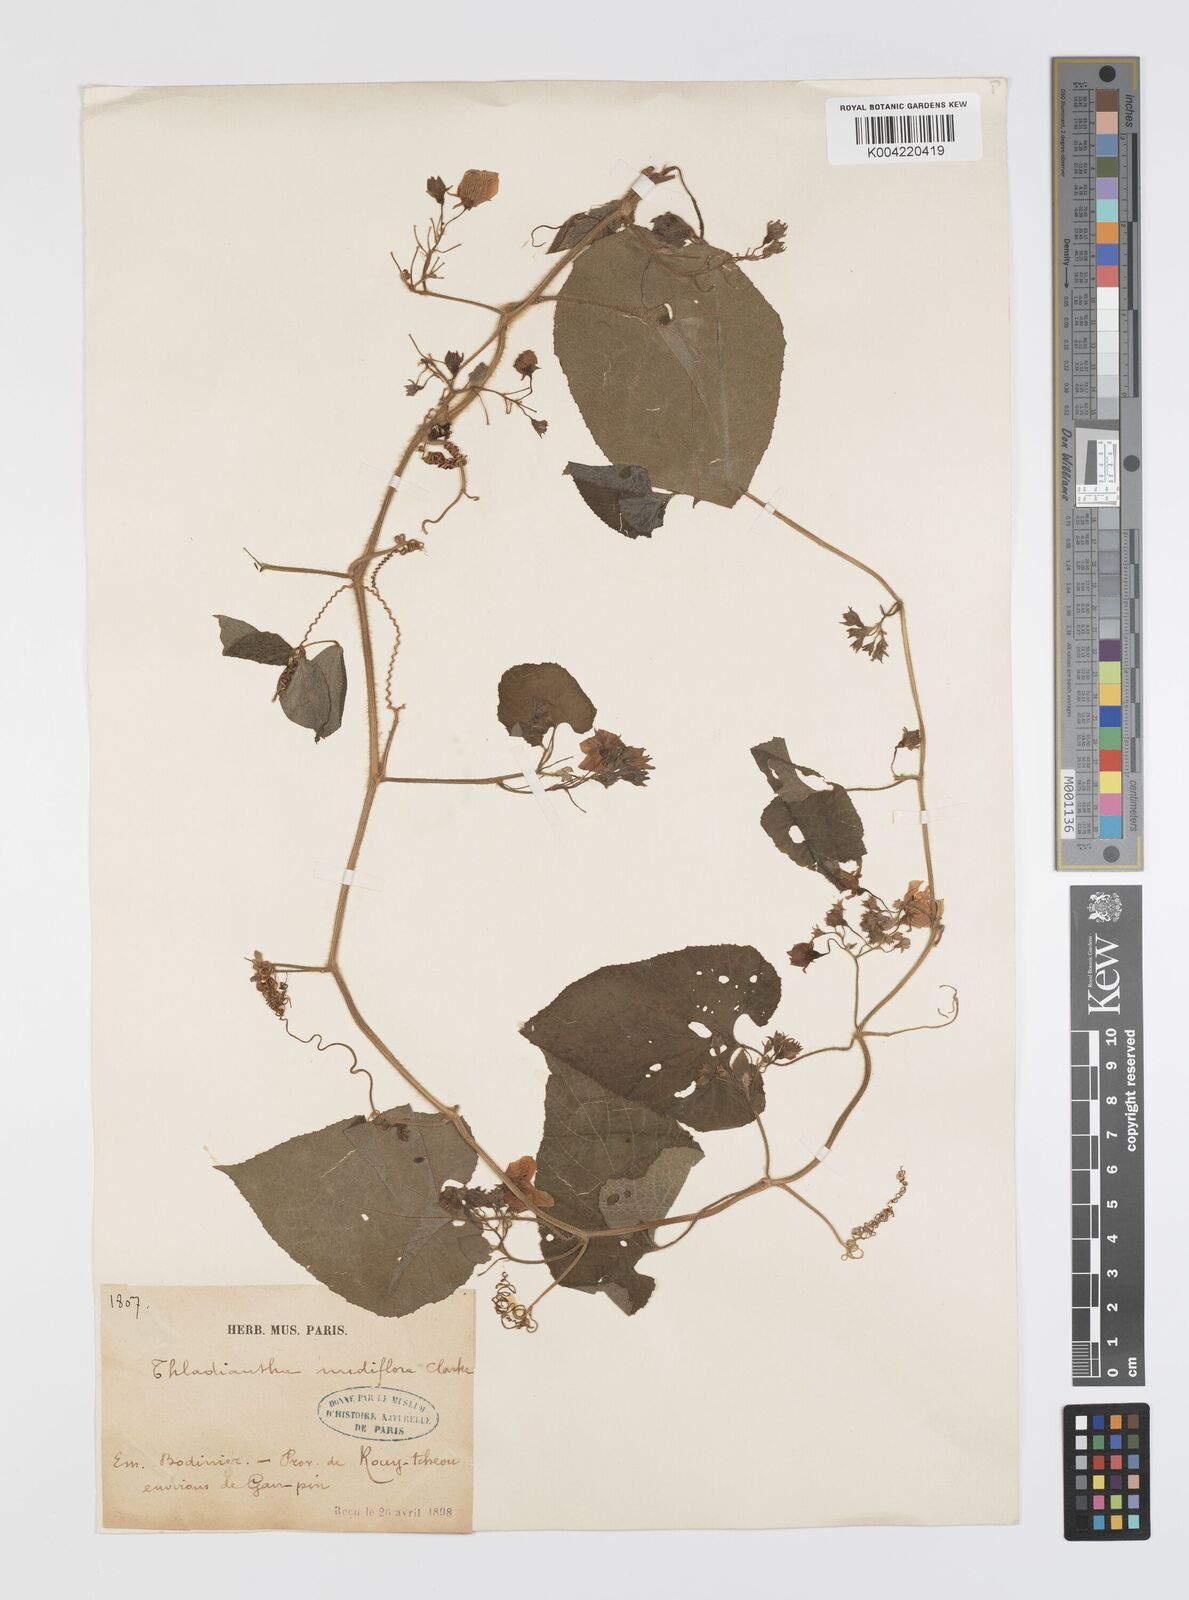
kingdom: Plantae
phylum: Tracheophyta
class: Magnoliopsida
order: Cucurbitales
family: Cucurbitaceae
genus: Thladiantha
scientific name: Thladiantha nudiflora
